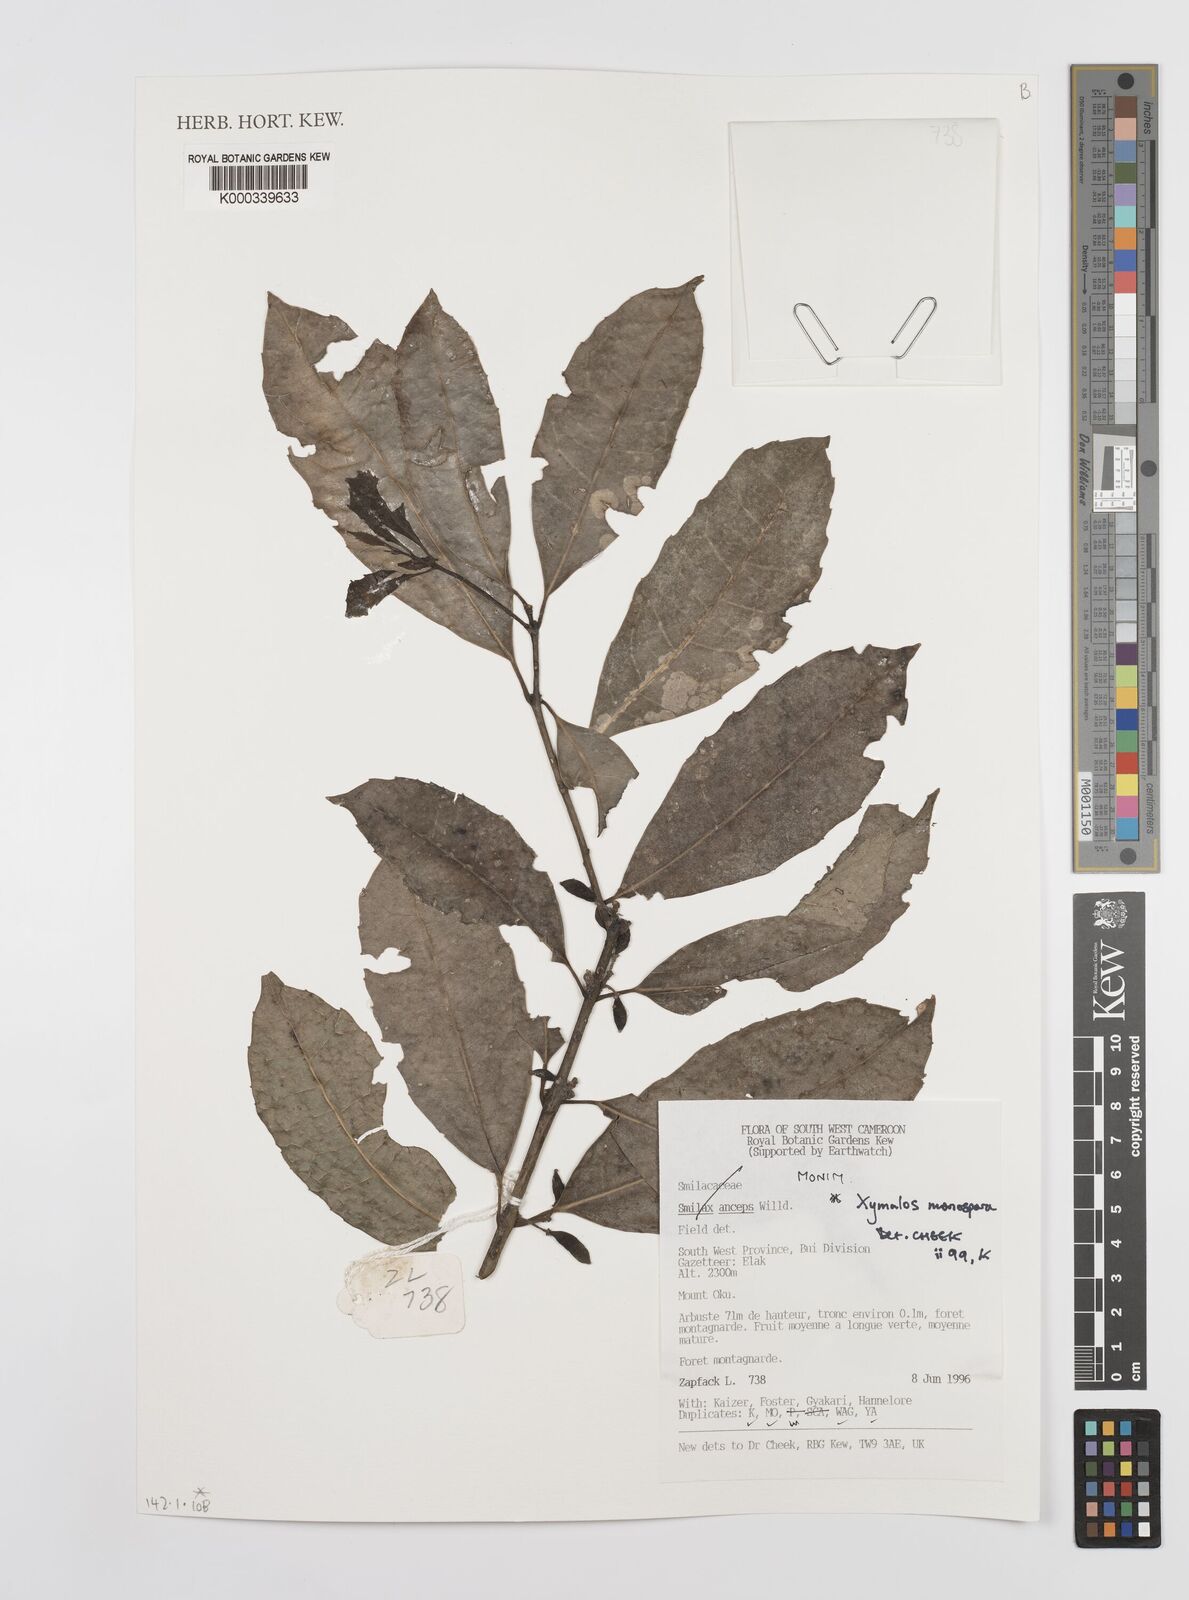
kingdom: Plantae
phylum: Tracheophyta
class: Magnoliopsida
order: Laurales
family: Monimiaceae
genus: Xymalos
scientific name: Xymalos
